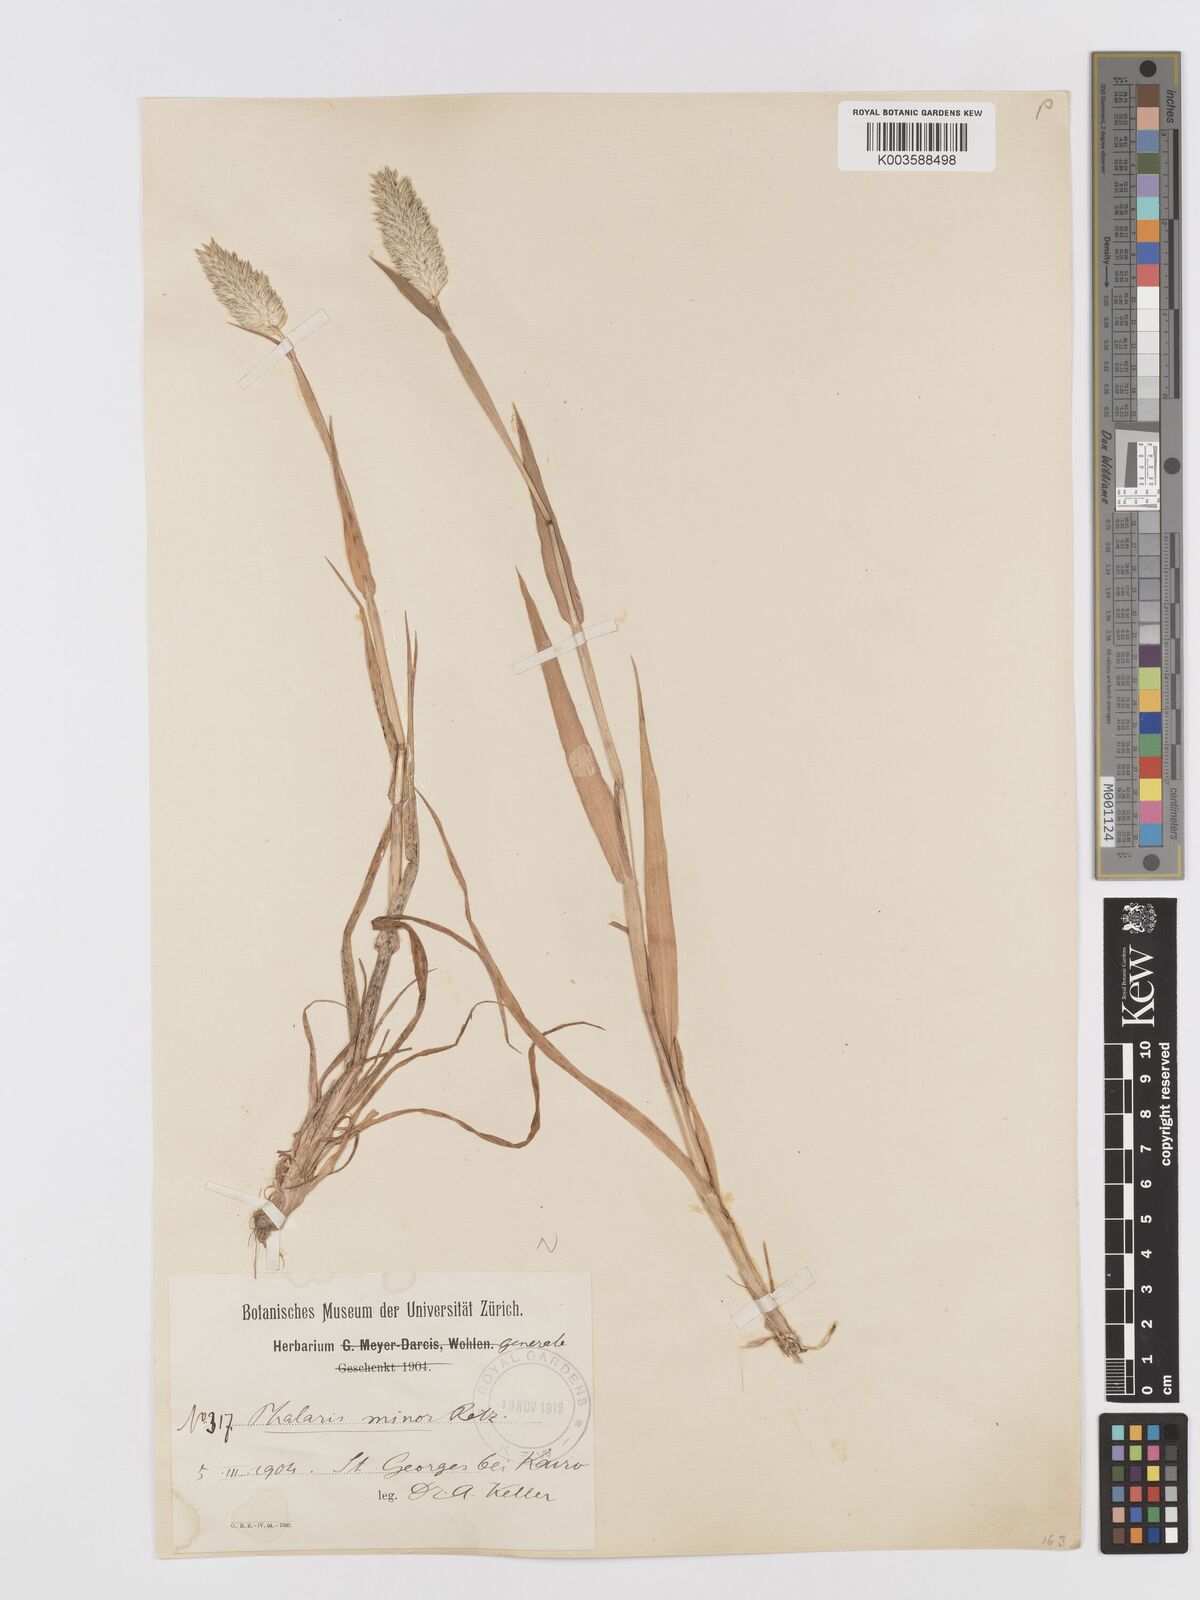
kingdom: Plantae
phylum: Tracheophyta
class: Liliopsida
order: Poales
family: Poaceae
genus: Phalaris
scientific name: Phalaris minor
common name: Littleseed canarygrass
